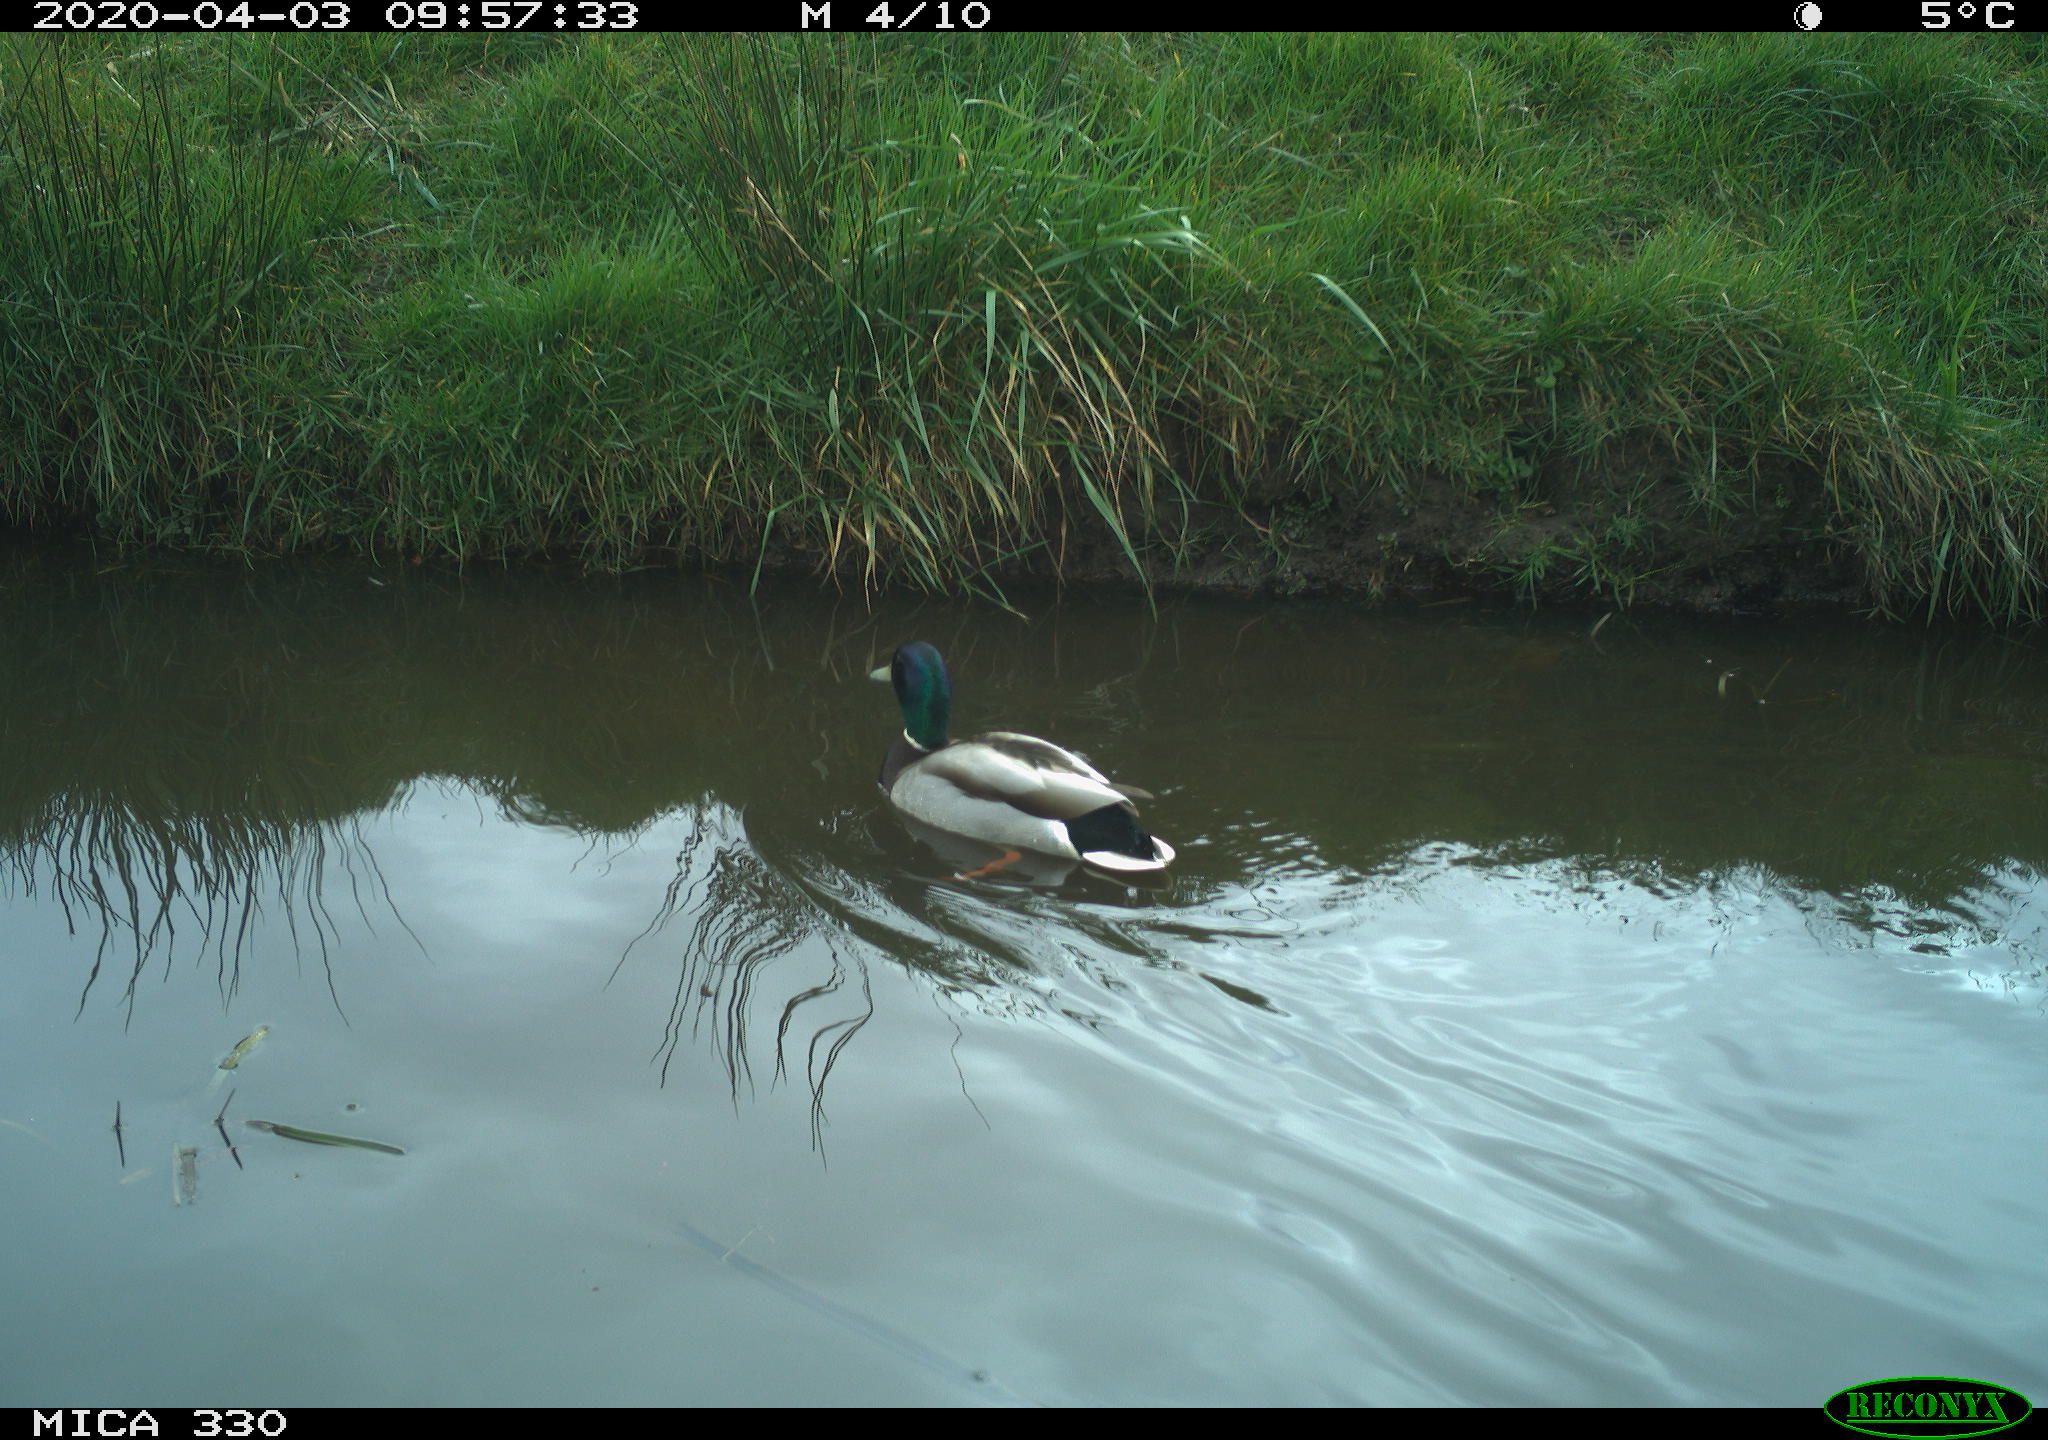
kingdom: Animalia
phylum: Chordata
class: Aves
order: Anseriformes
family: Anatidae
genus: Anas
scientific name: Anas platyrhynchos
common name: Mallard
